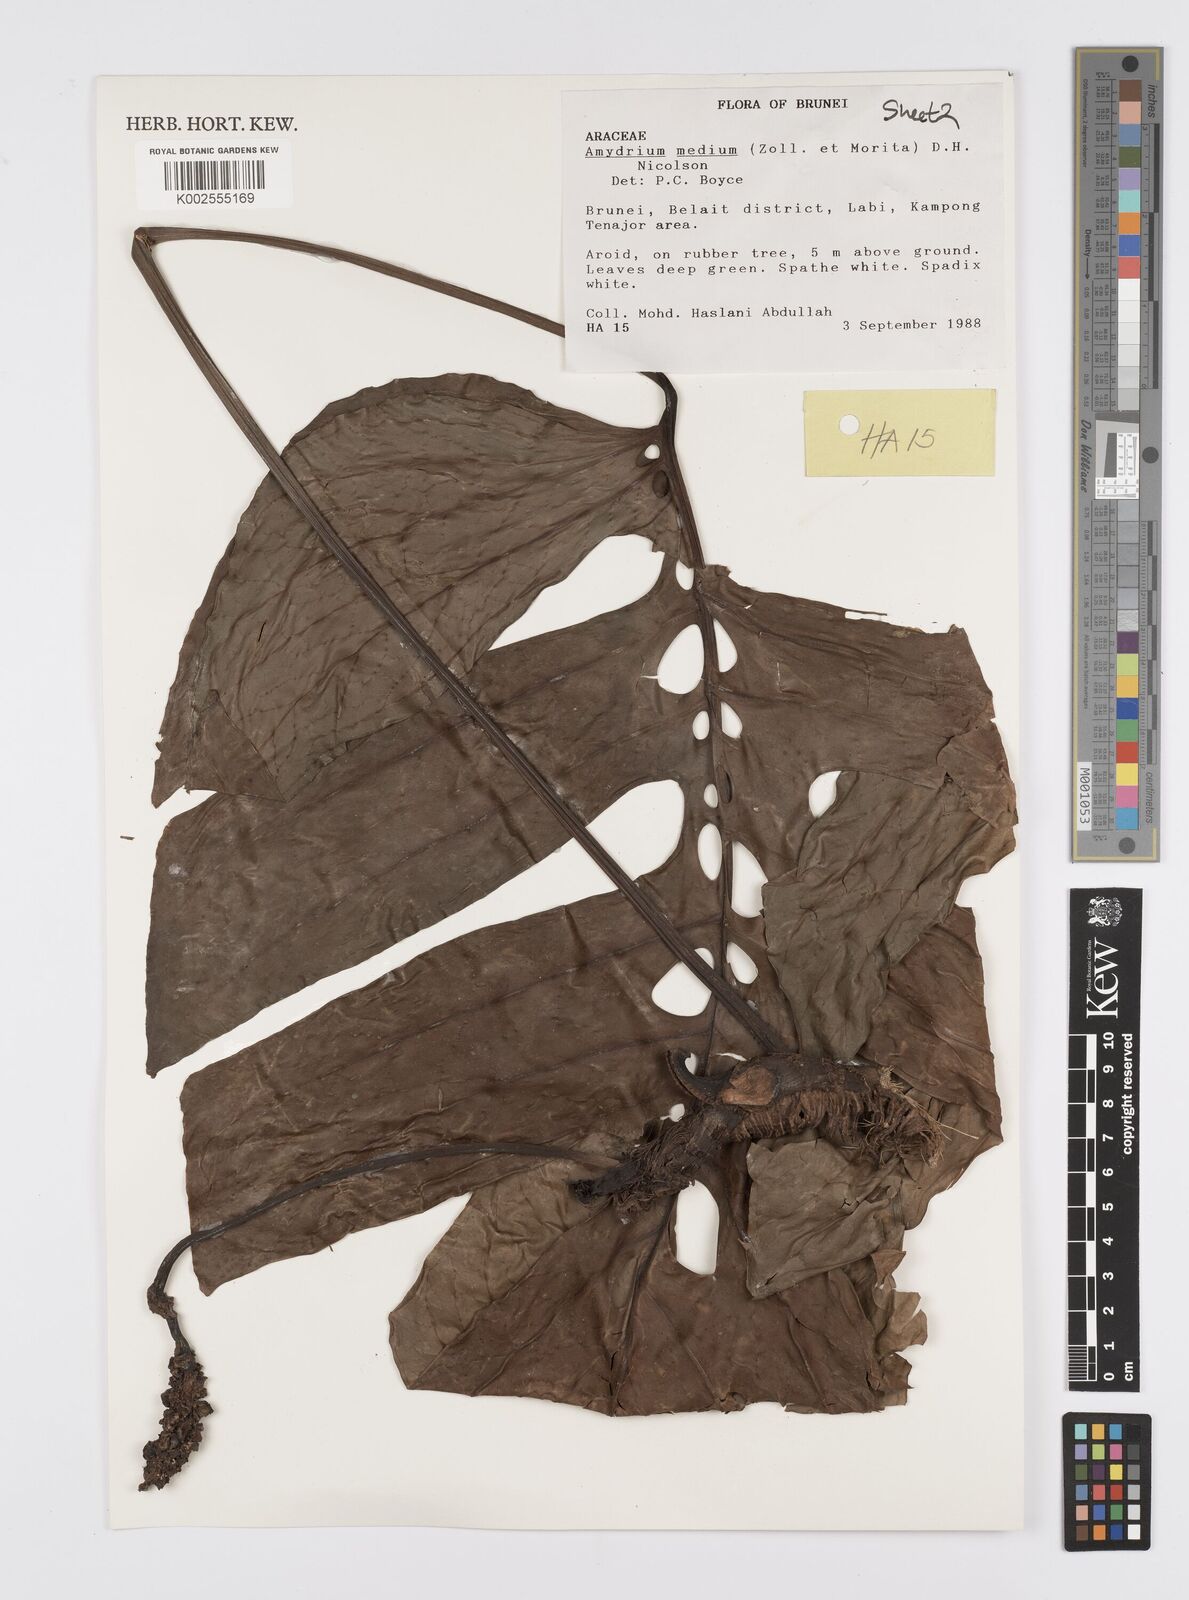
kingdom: Plantae
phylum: Tracheophyta
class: Liliopsida
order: Alismatales
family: Araceae
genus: Amydrium
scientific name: Amydrium medium
